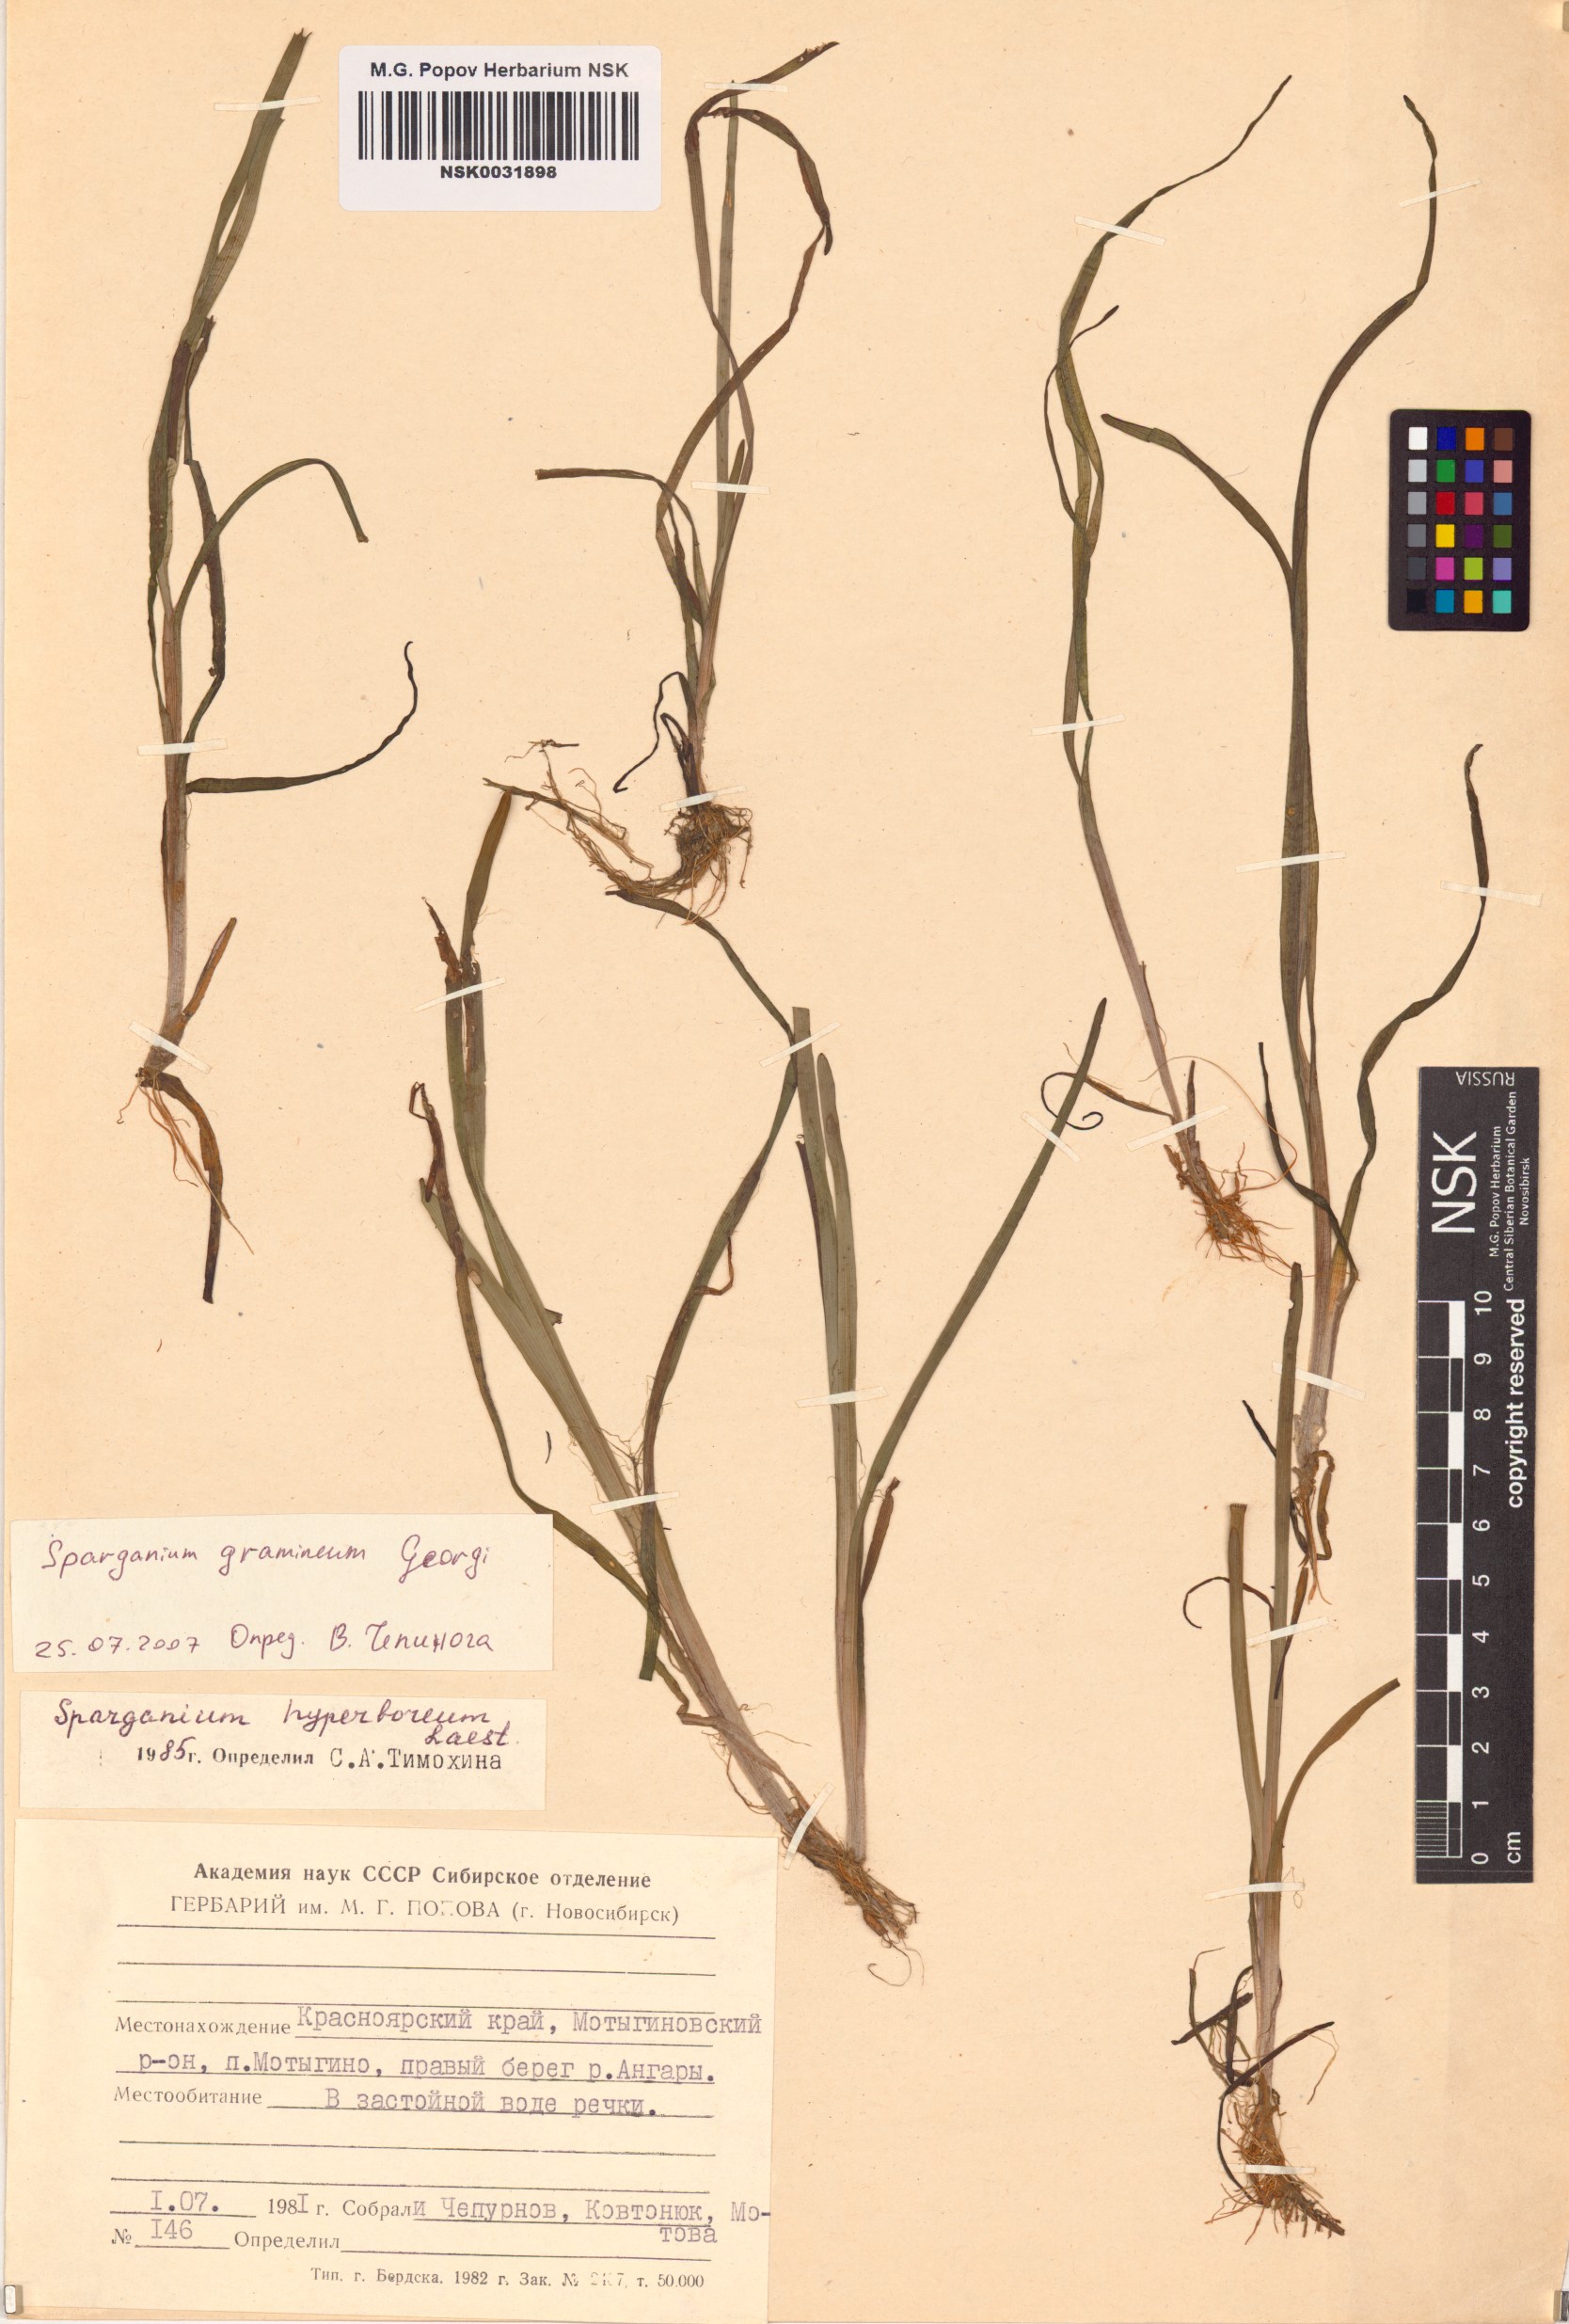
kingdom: Plantae
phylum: Tracheophyta
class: Liliopsida
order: Poales
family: Typhaceae
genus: Sparganium
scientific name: Sparganium gramineum
